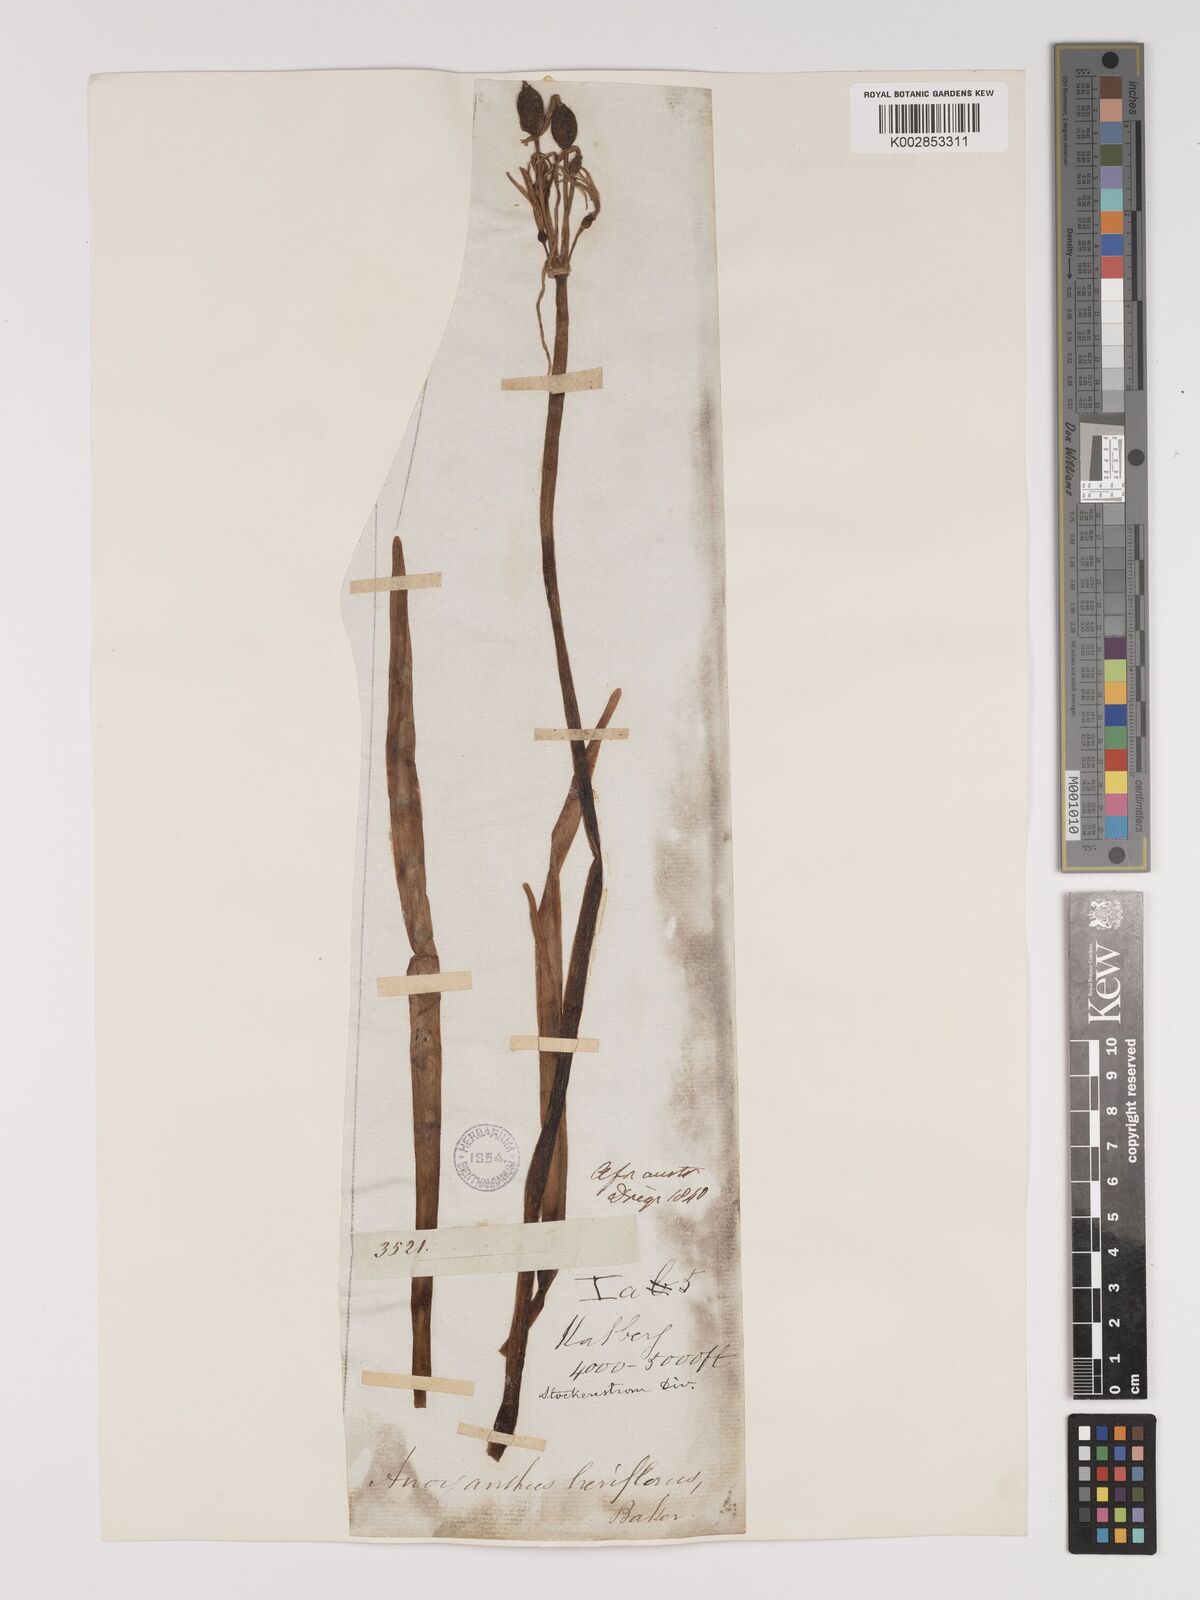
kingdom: Plantae
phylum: Tracheophyta
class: Liliopsida
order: Asparagales
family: Amaryllidaceae
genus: Cyrtanthus
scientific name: Cyrtanthus breviflorus
